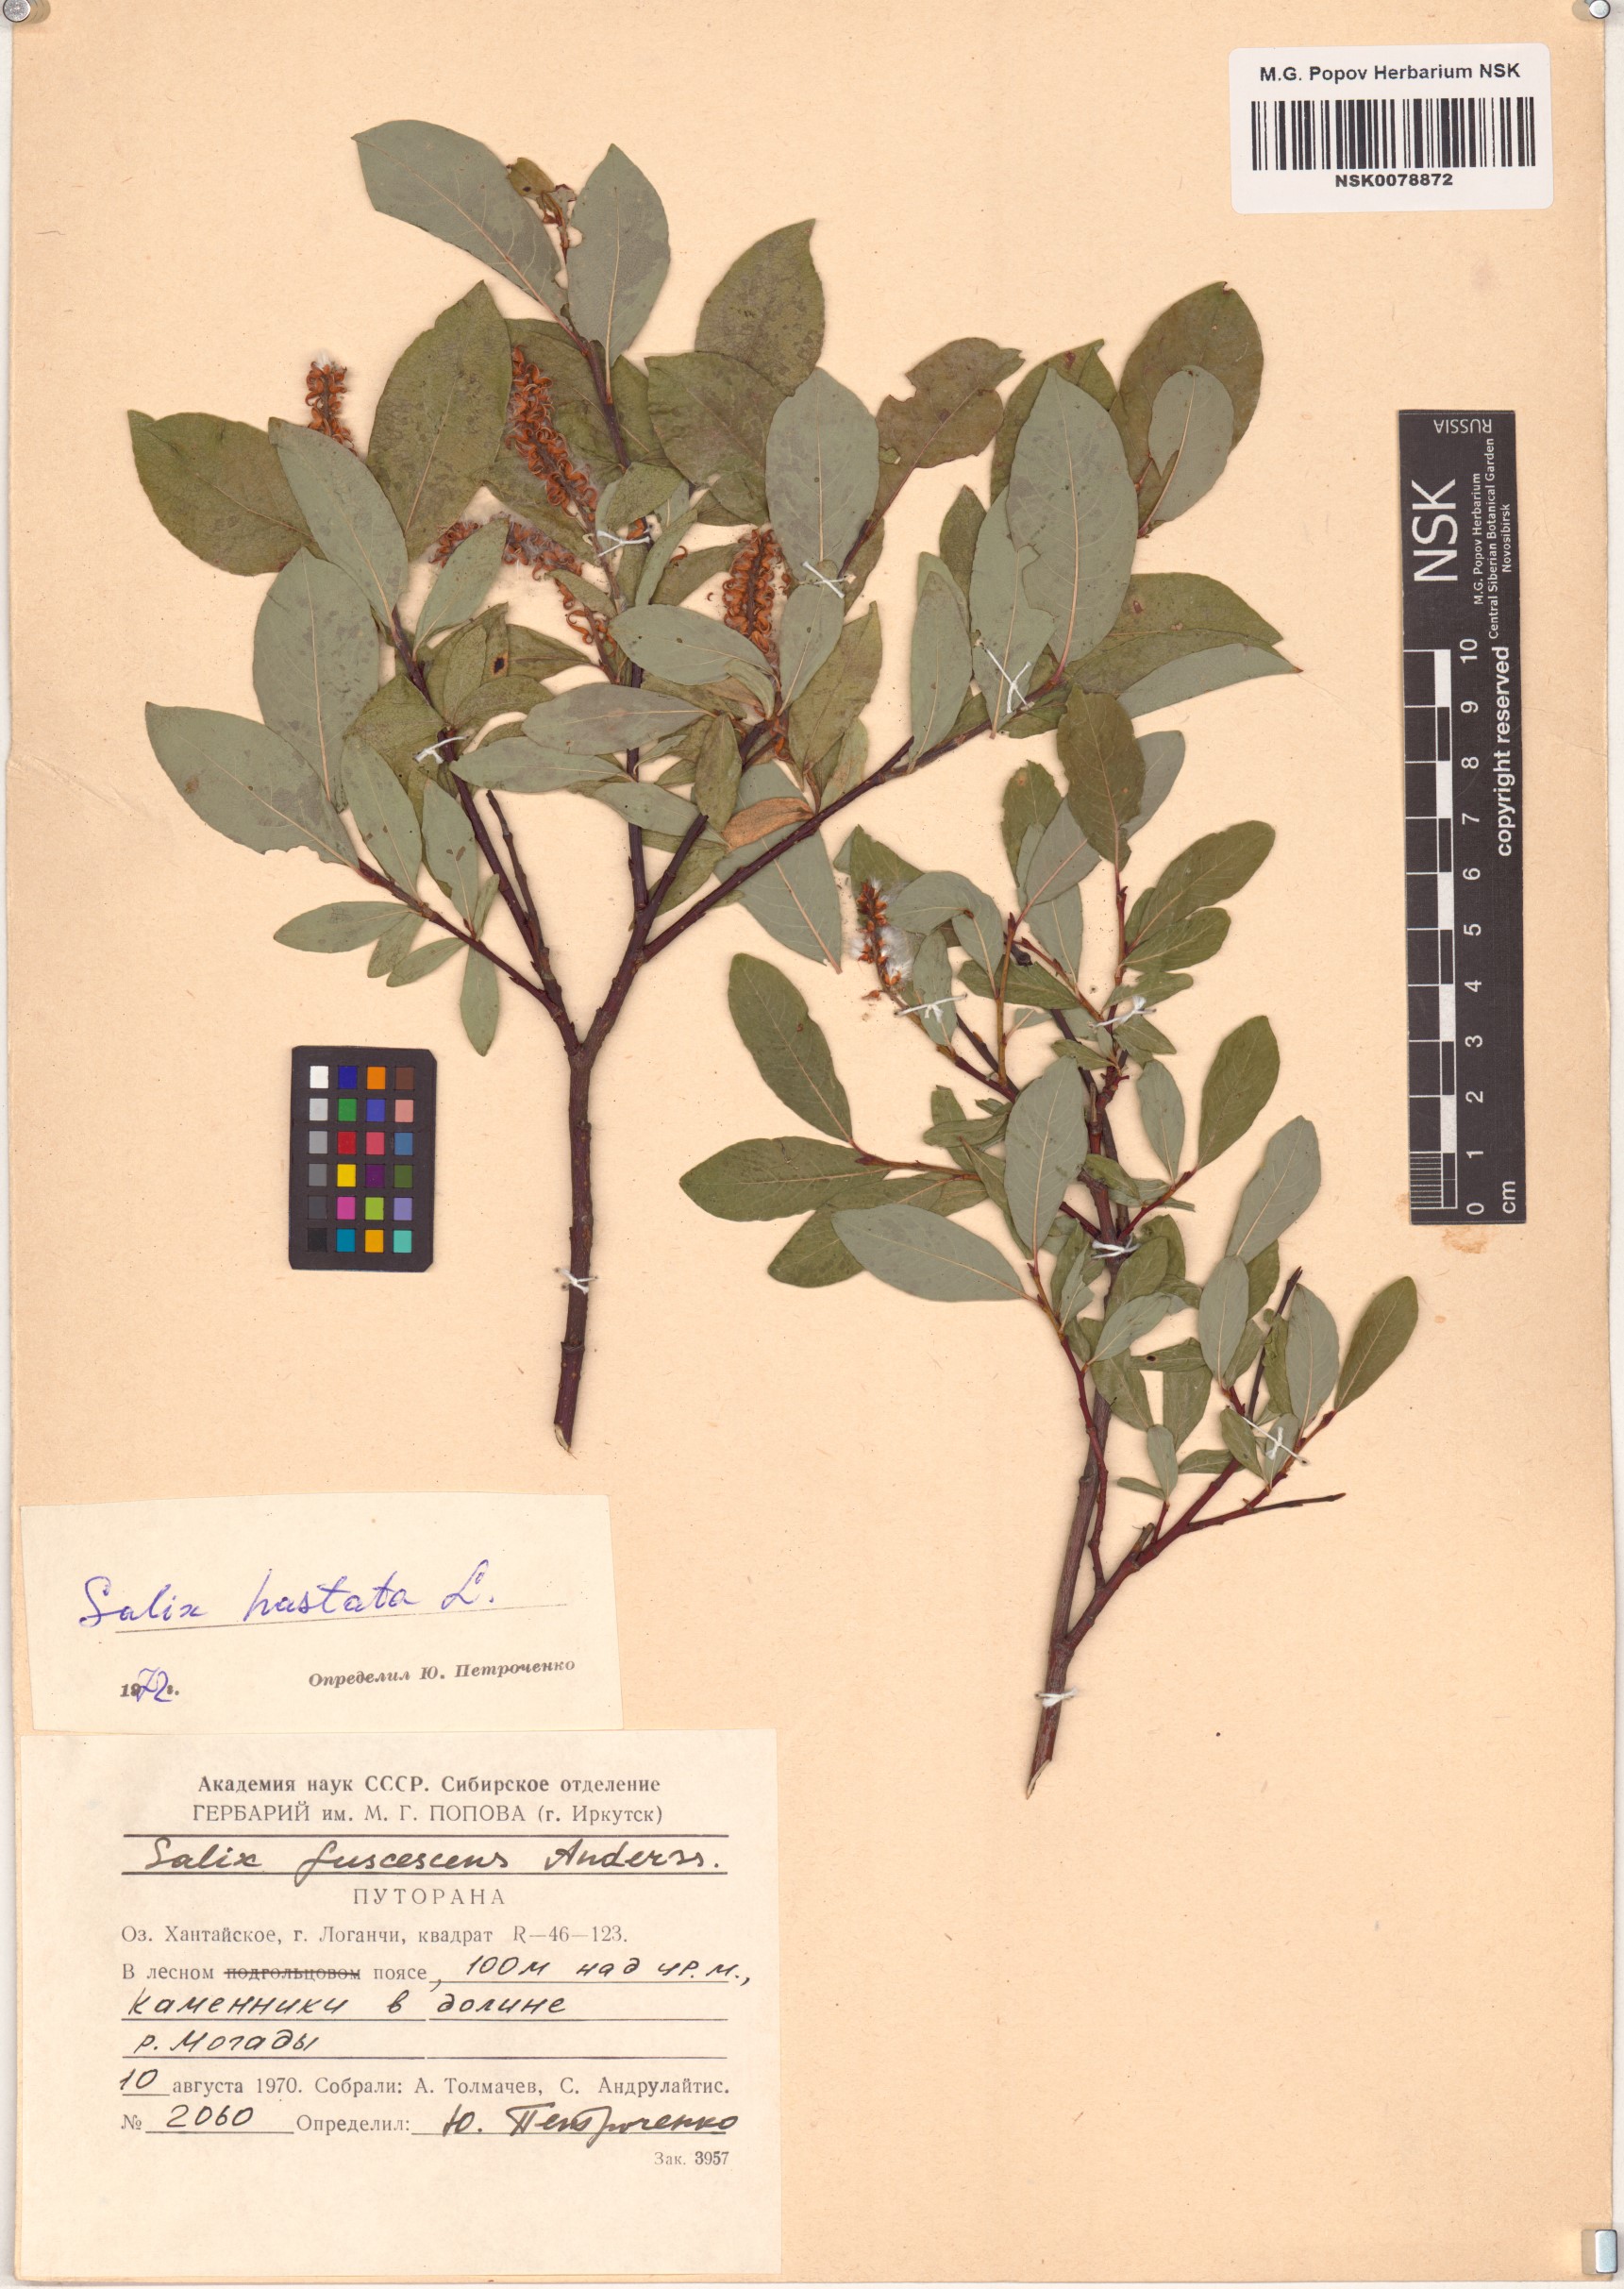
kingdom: Plantae
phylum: Tracheophyta
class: Magnoliopsida
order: Malpighiales
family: Salicaceae
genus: Salix
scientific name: Salix hastata
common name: Halberd willow
